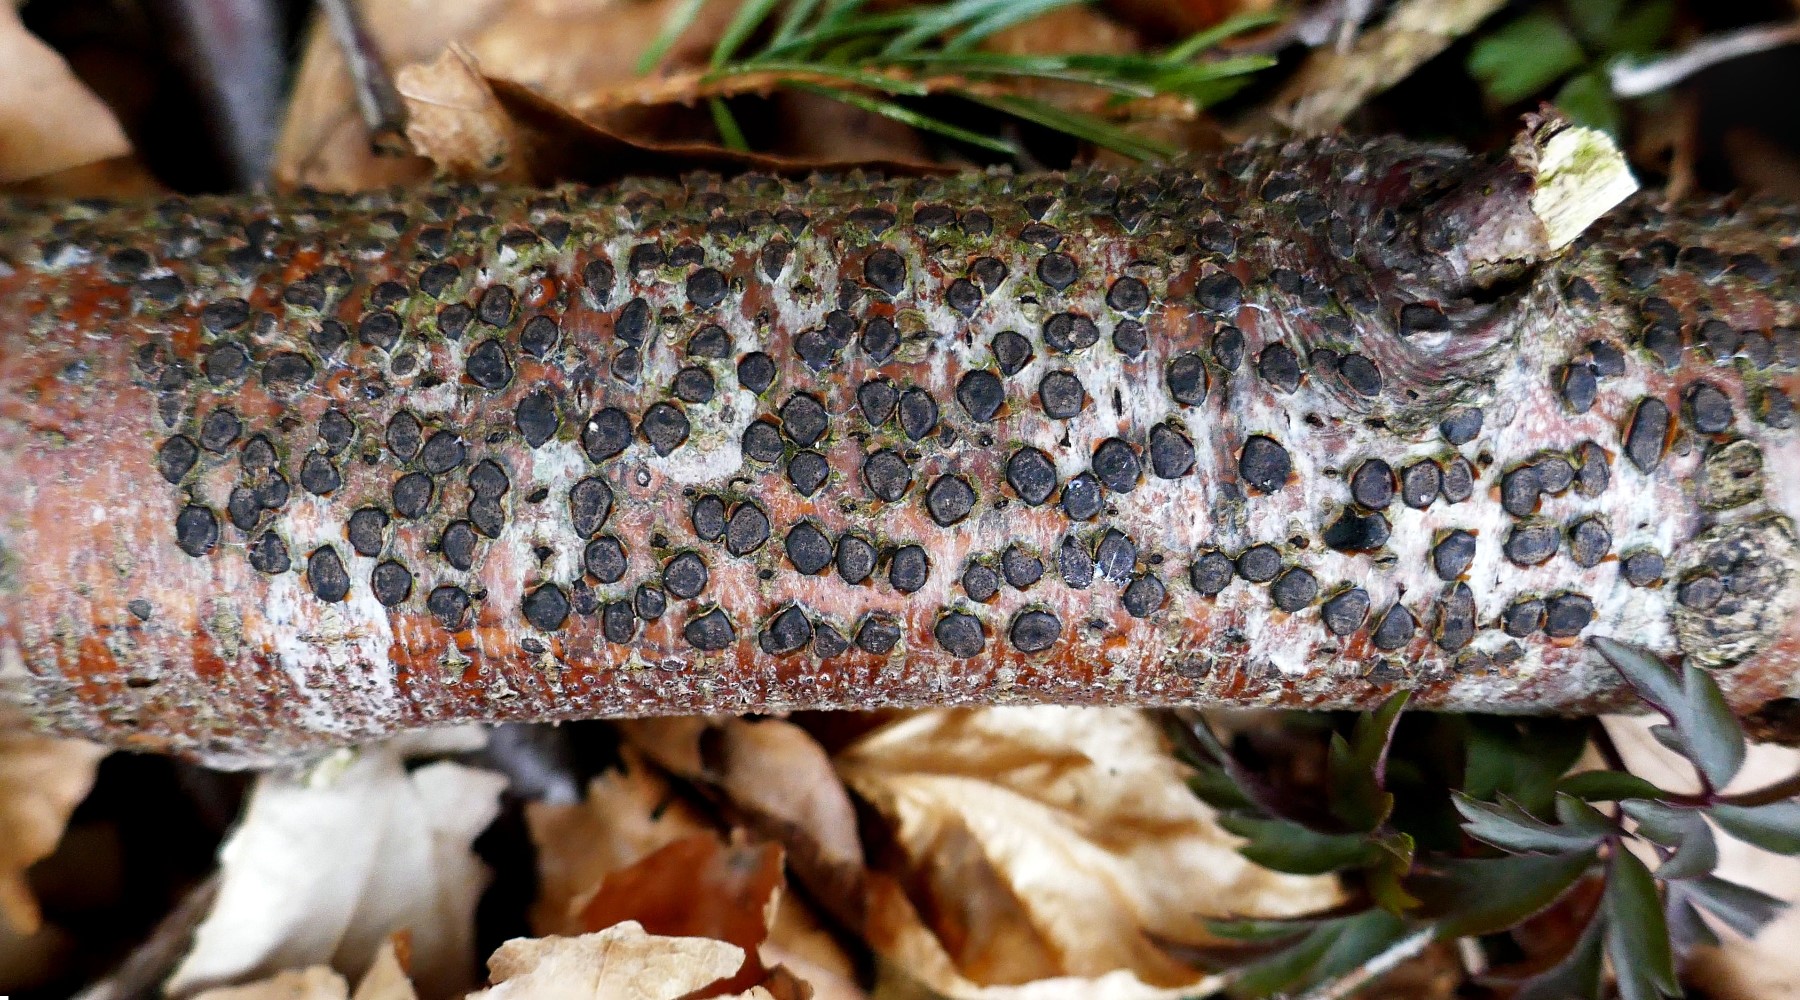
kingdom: Fungi
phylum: Ascomycota
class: Sordariomycetes
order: Xylariales
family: Diatrypaceae
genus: Diatrype
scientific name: Diatrype disciformis
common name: kant-kulskorpe
